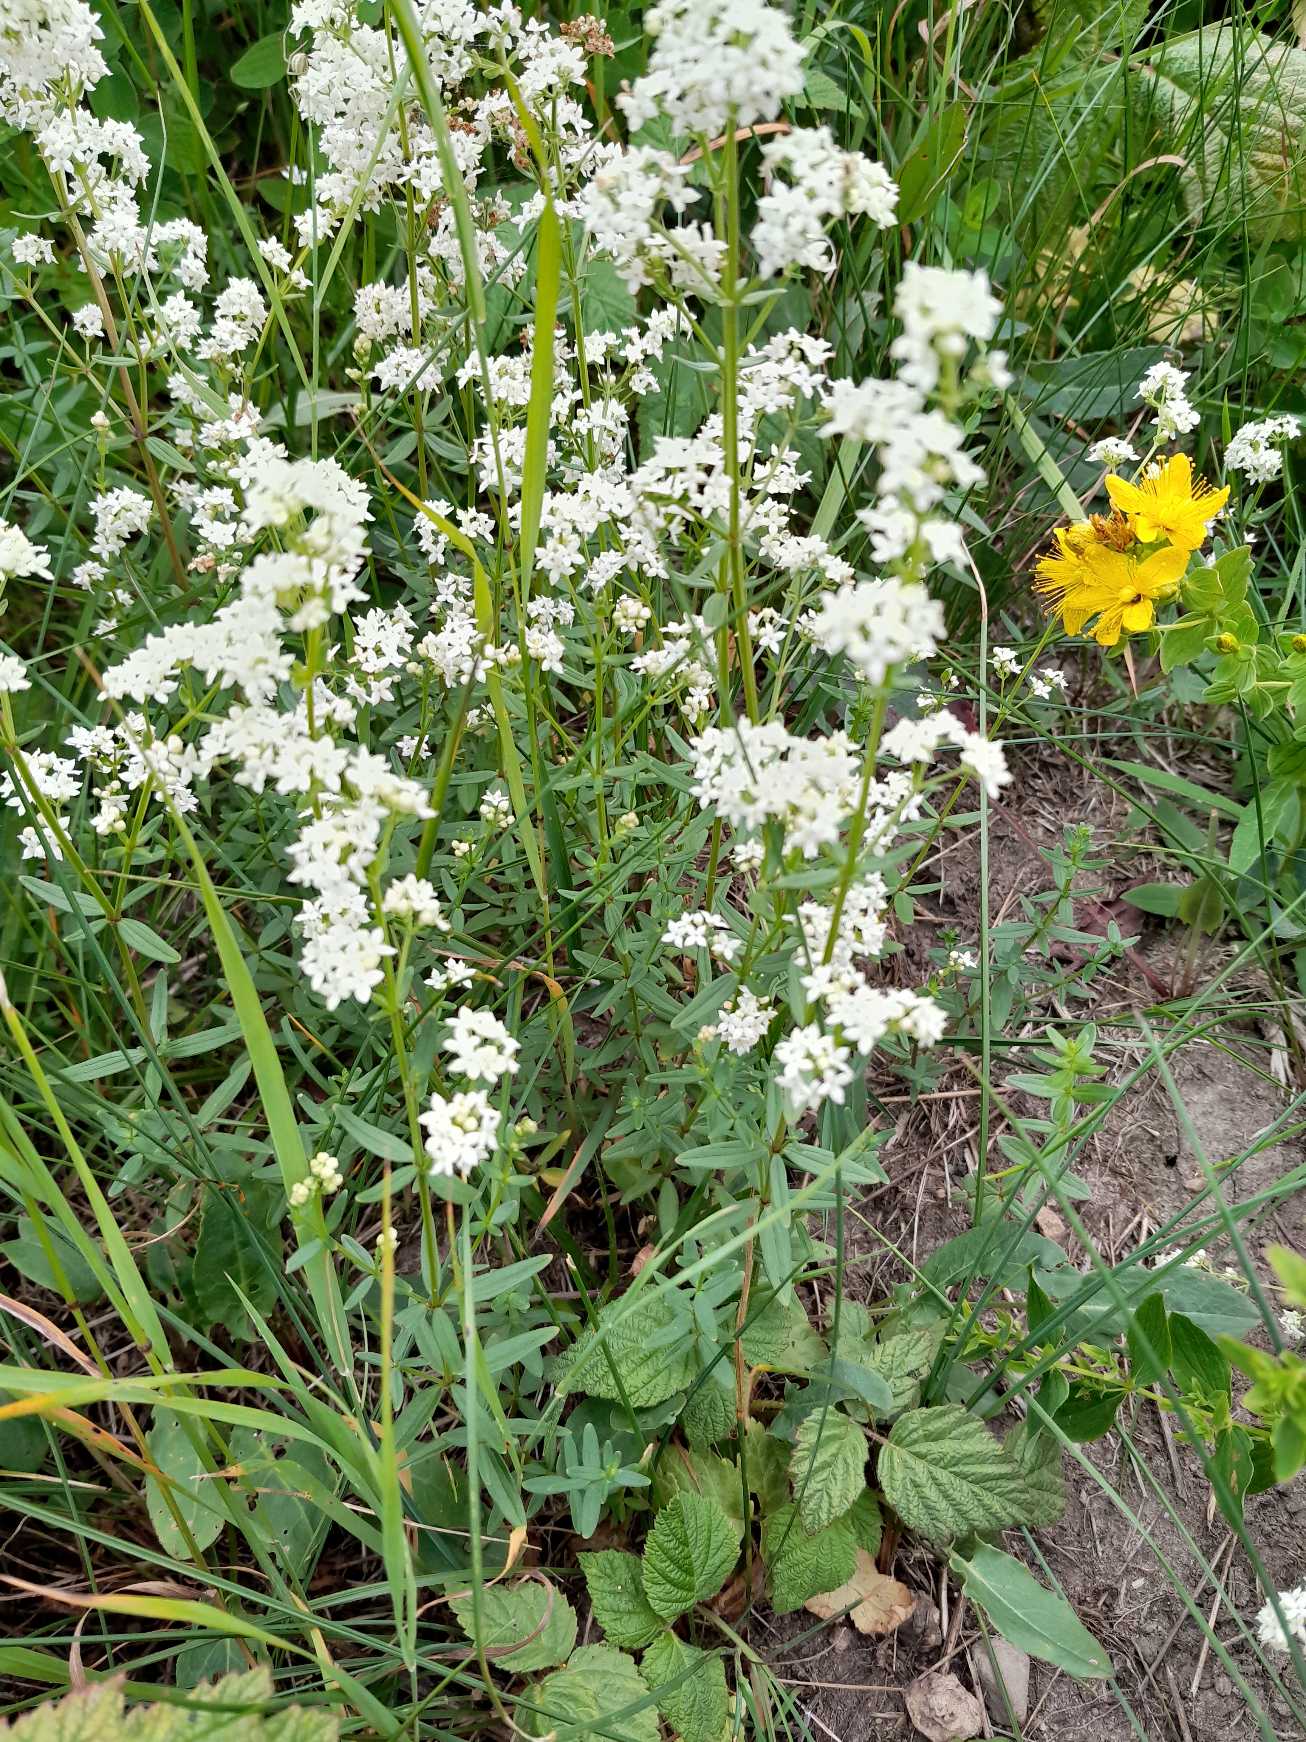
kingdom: Plantae
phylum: Tracheophyta
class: Magnoliopsida
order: Gentianales
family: Rubiaceae
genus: Galium
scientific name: Galium boreale
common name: Trenervet snerre
